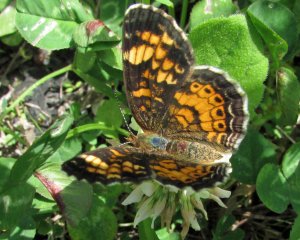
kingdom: Animalia
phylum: Arthropoda
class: Insecta
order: Lepidoptera
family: Nymphalidae
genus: Phyciodes
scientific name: Phyciodes tharos
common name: Pearl Crescent
